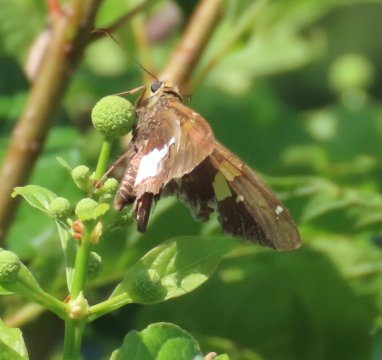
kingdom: Animalia
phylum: Arthropoda
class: Insecta
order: Lepidoptera
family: Hesperiidae
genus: Epargyreus
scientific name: Epargyreus clarus
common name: Silver-spotted Skipper
